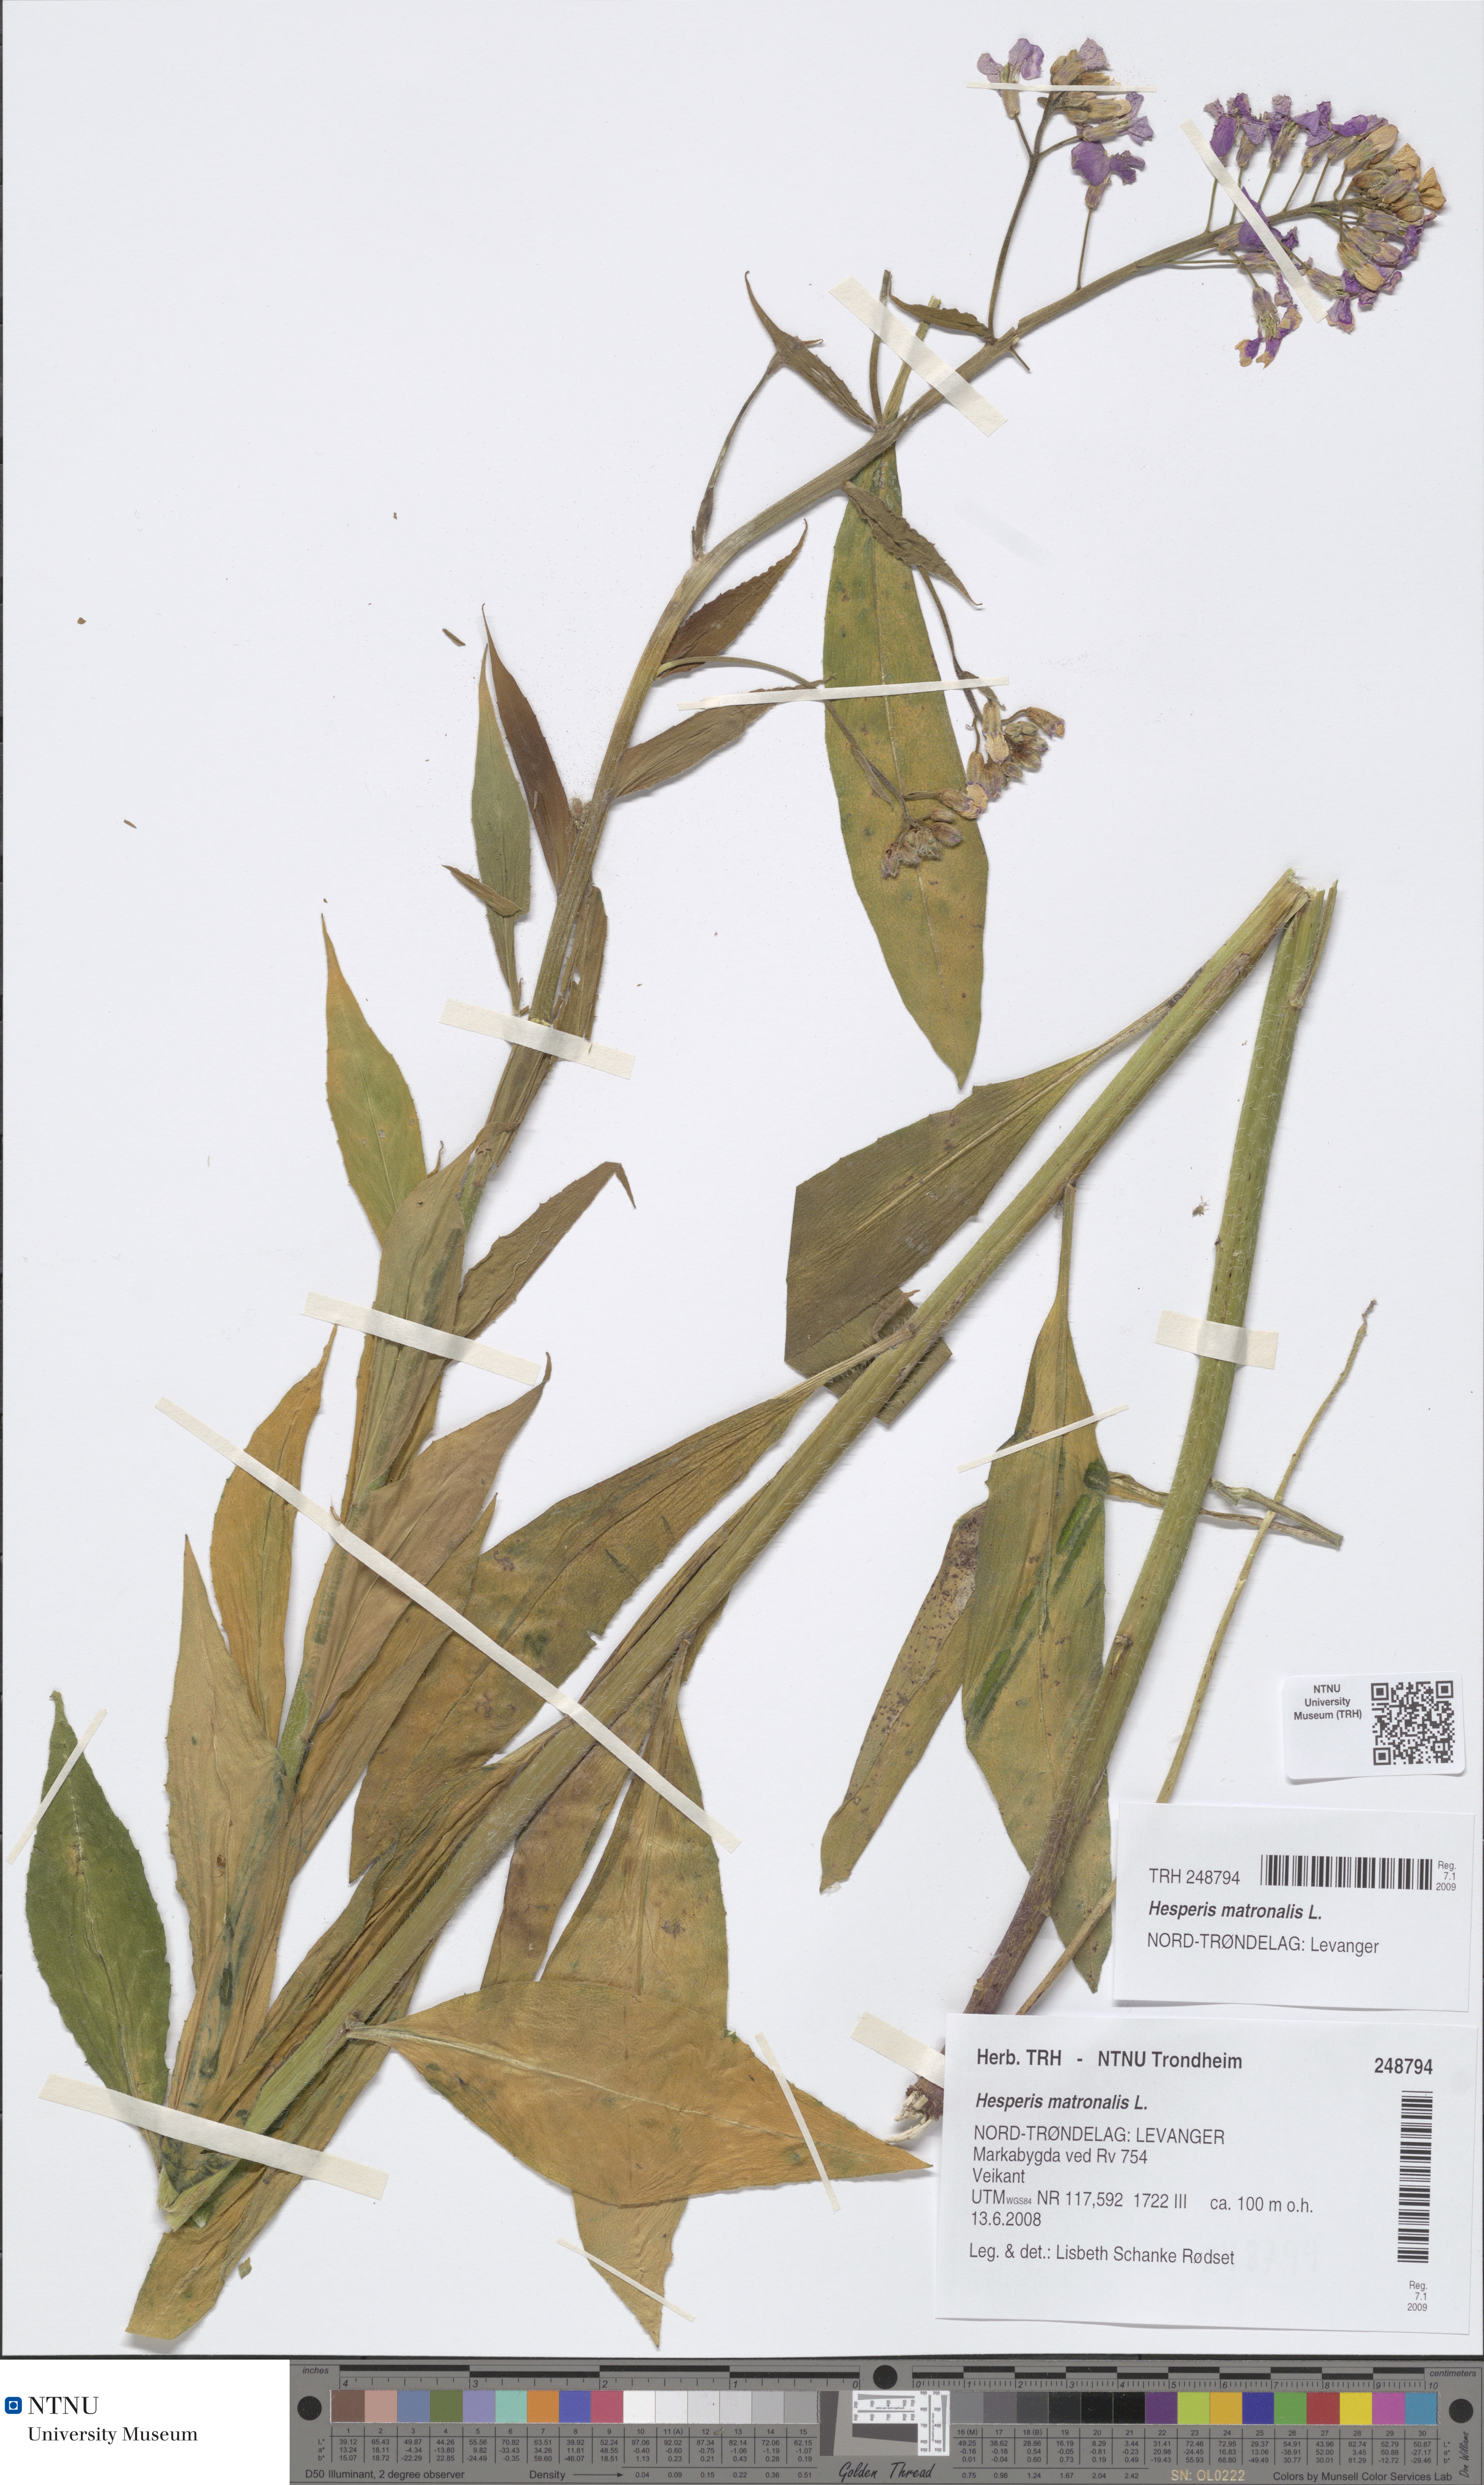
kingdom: Plantae
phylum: Tracheophyta
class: Magnoliopsida
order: Brassicales
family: Brassicaceae
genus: Hesperis
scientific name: Hesperis matronalis
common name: Dame's-violet
